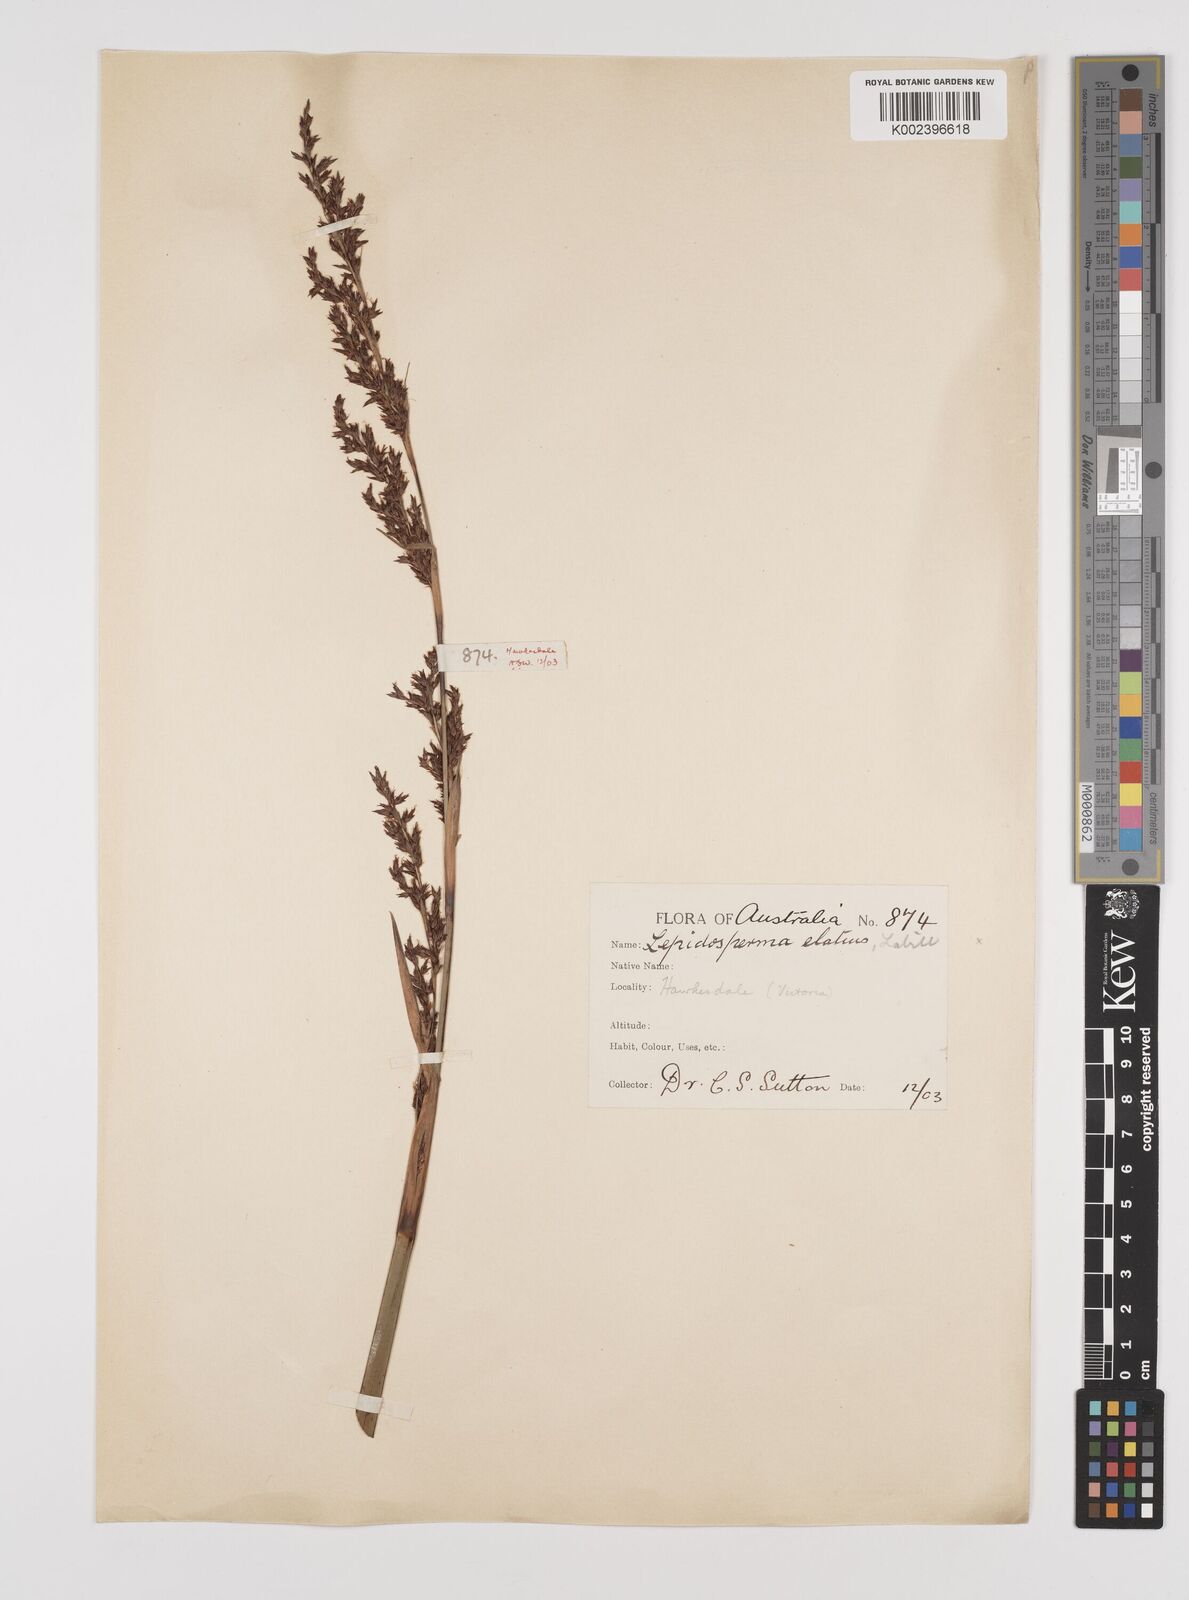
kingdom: Plantae
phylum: Tracheophyta
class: Liliopsida
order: Poales
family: Cyperaceae
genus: Lepidosperma
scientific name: Lepidosperma elatius
